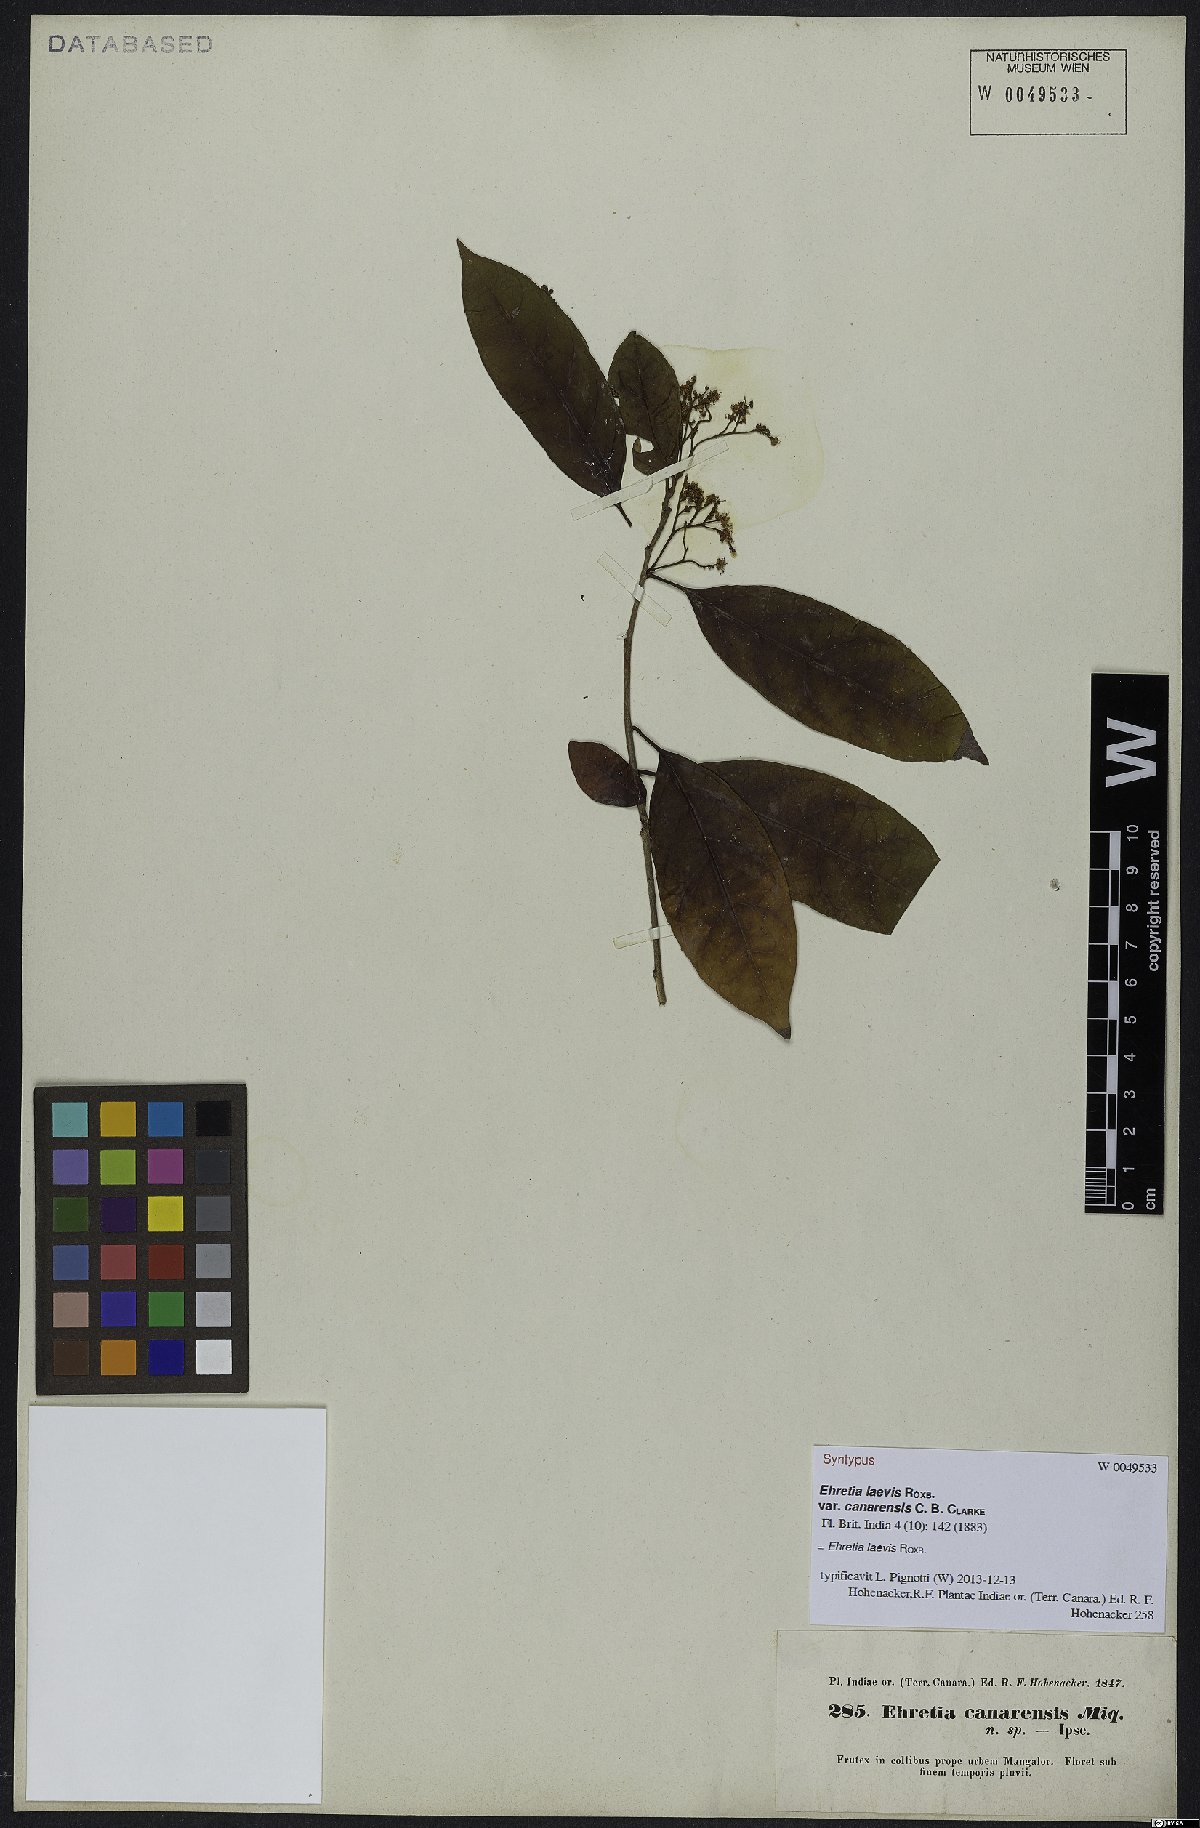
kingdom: Plantae
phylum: Tracheophyta
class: Magnoliopsida
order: Boraginales
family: Ehretiaceae
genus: Ehretia
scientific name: Ehretia laevis
